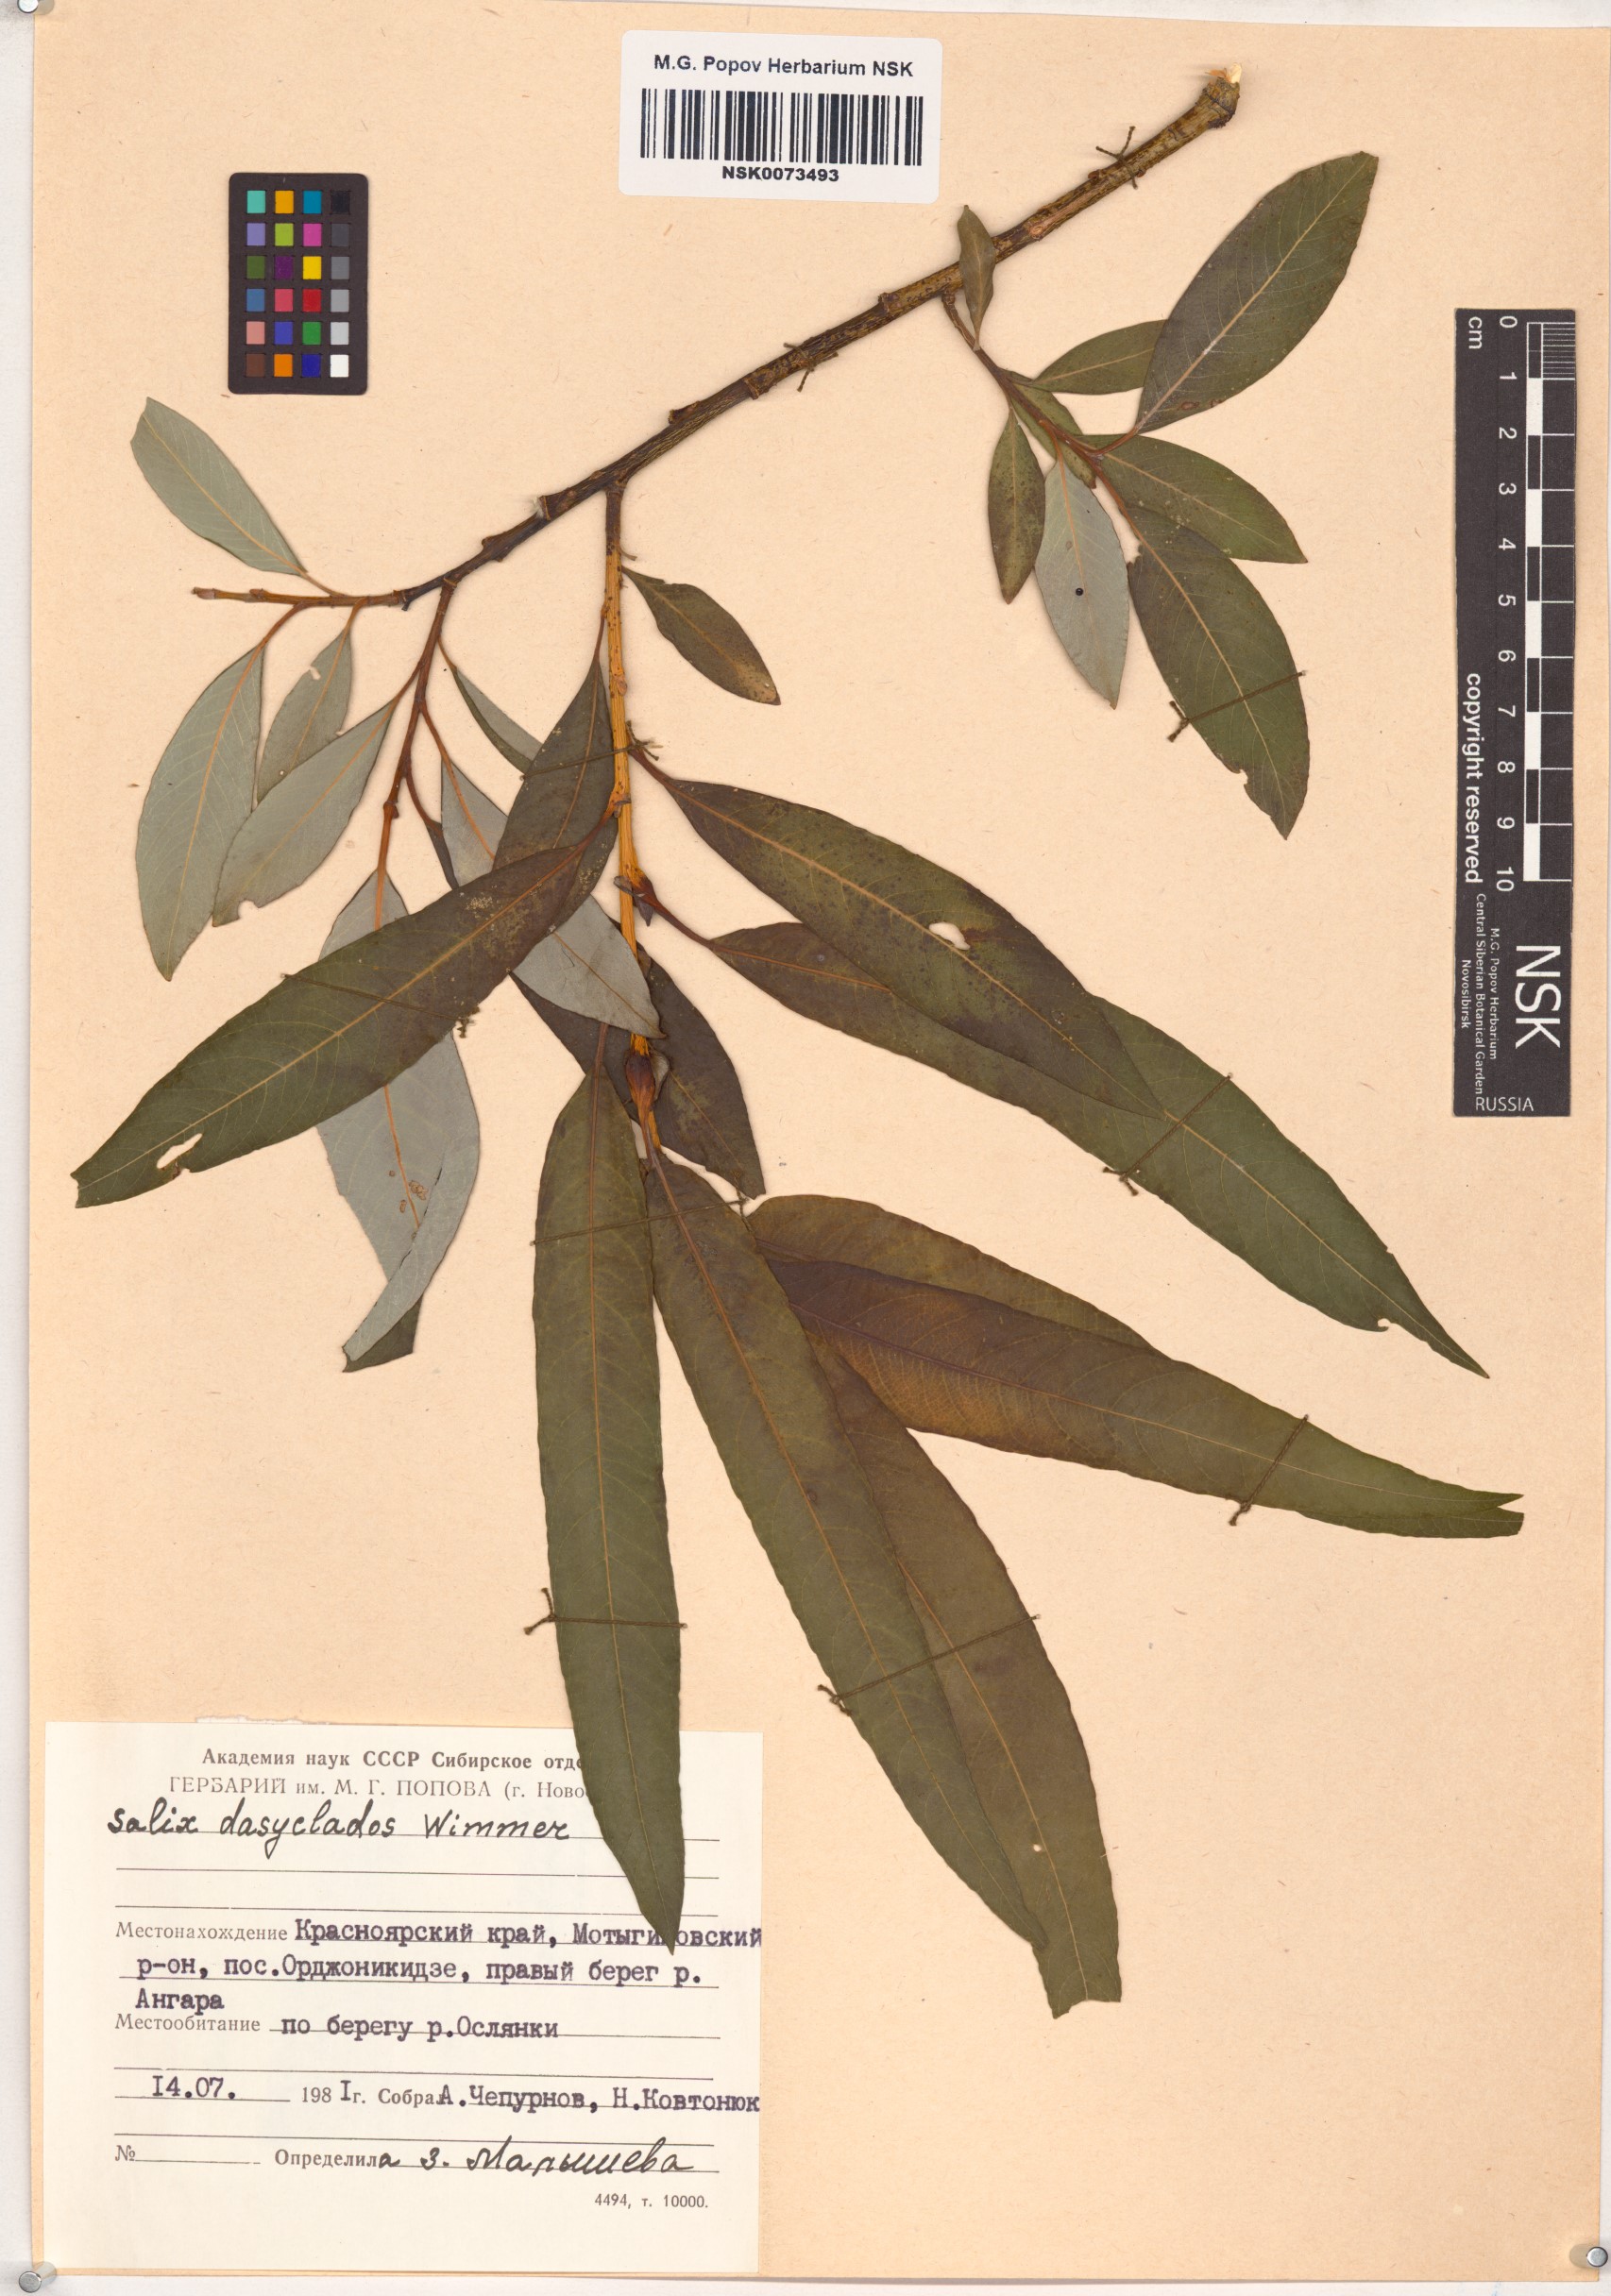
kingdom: Plantae
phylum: Tracheophyta
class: Magnoliopsida
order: Malpighiales
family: Salicaceae
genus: Salix
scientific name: Salix gmelinii
